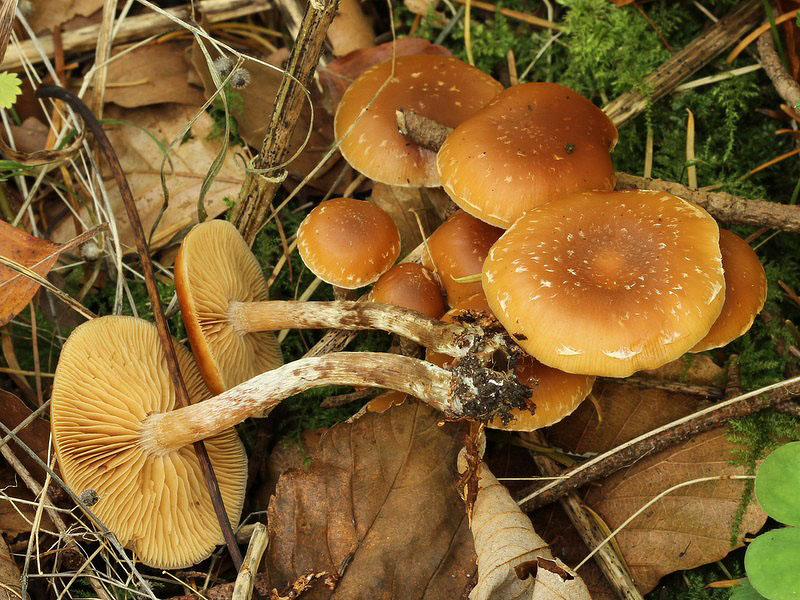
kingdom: Fungi
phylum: Basidiomycota
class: Agaricomycetes
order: Agaricales
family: Hymenogastraceae
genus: Galerina
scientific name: Galerina sideroides
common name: træflis-hjelmhat
